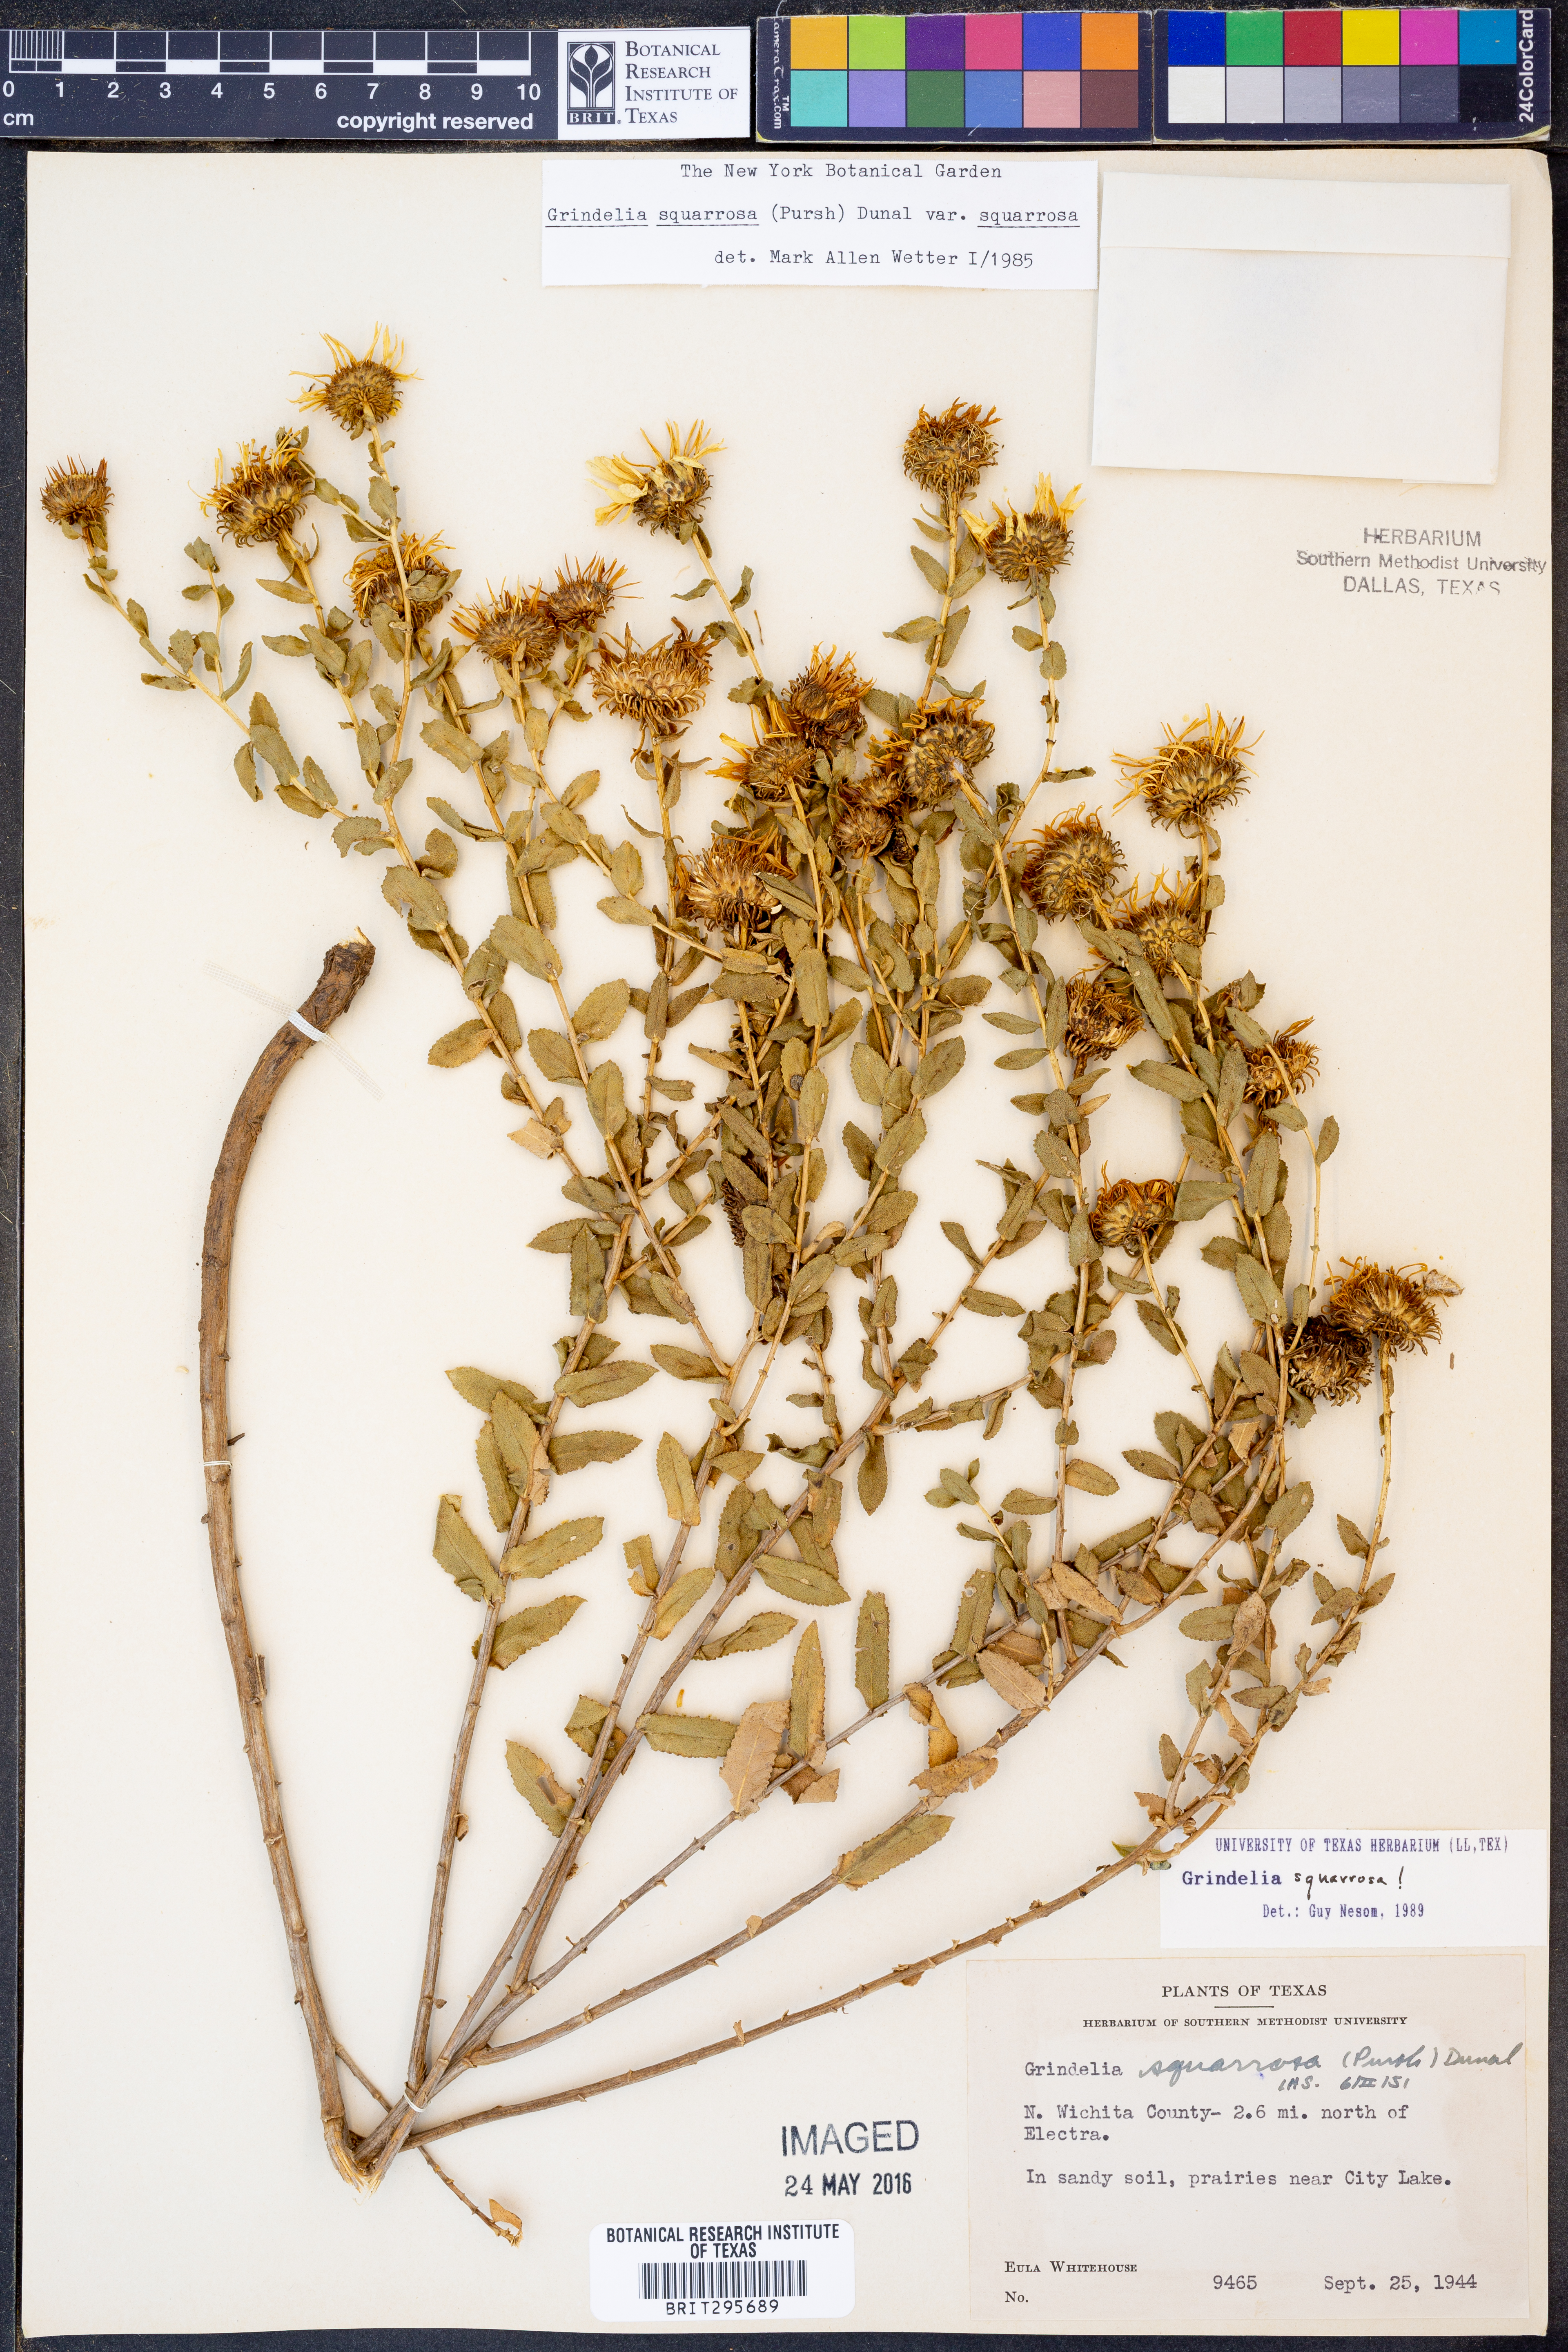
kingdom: Plantae
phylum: Tracheophyta
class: Magnoliopsida
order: Asterales
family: Asteraceae
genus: Grindelia
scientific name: Grindelia squarrosa
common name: Curly-cup gumweed
